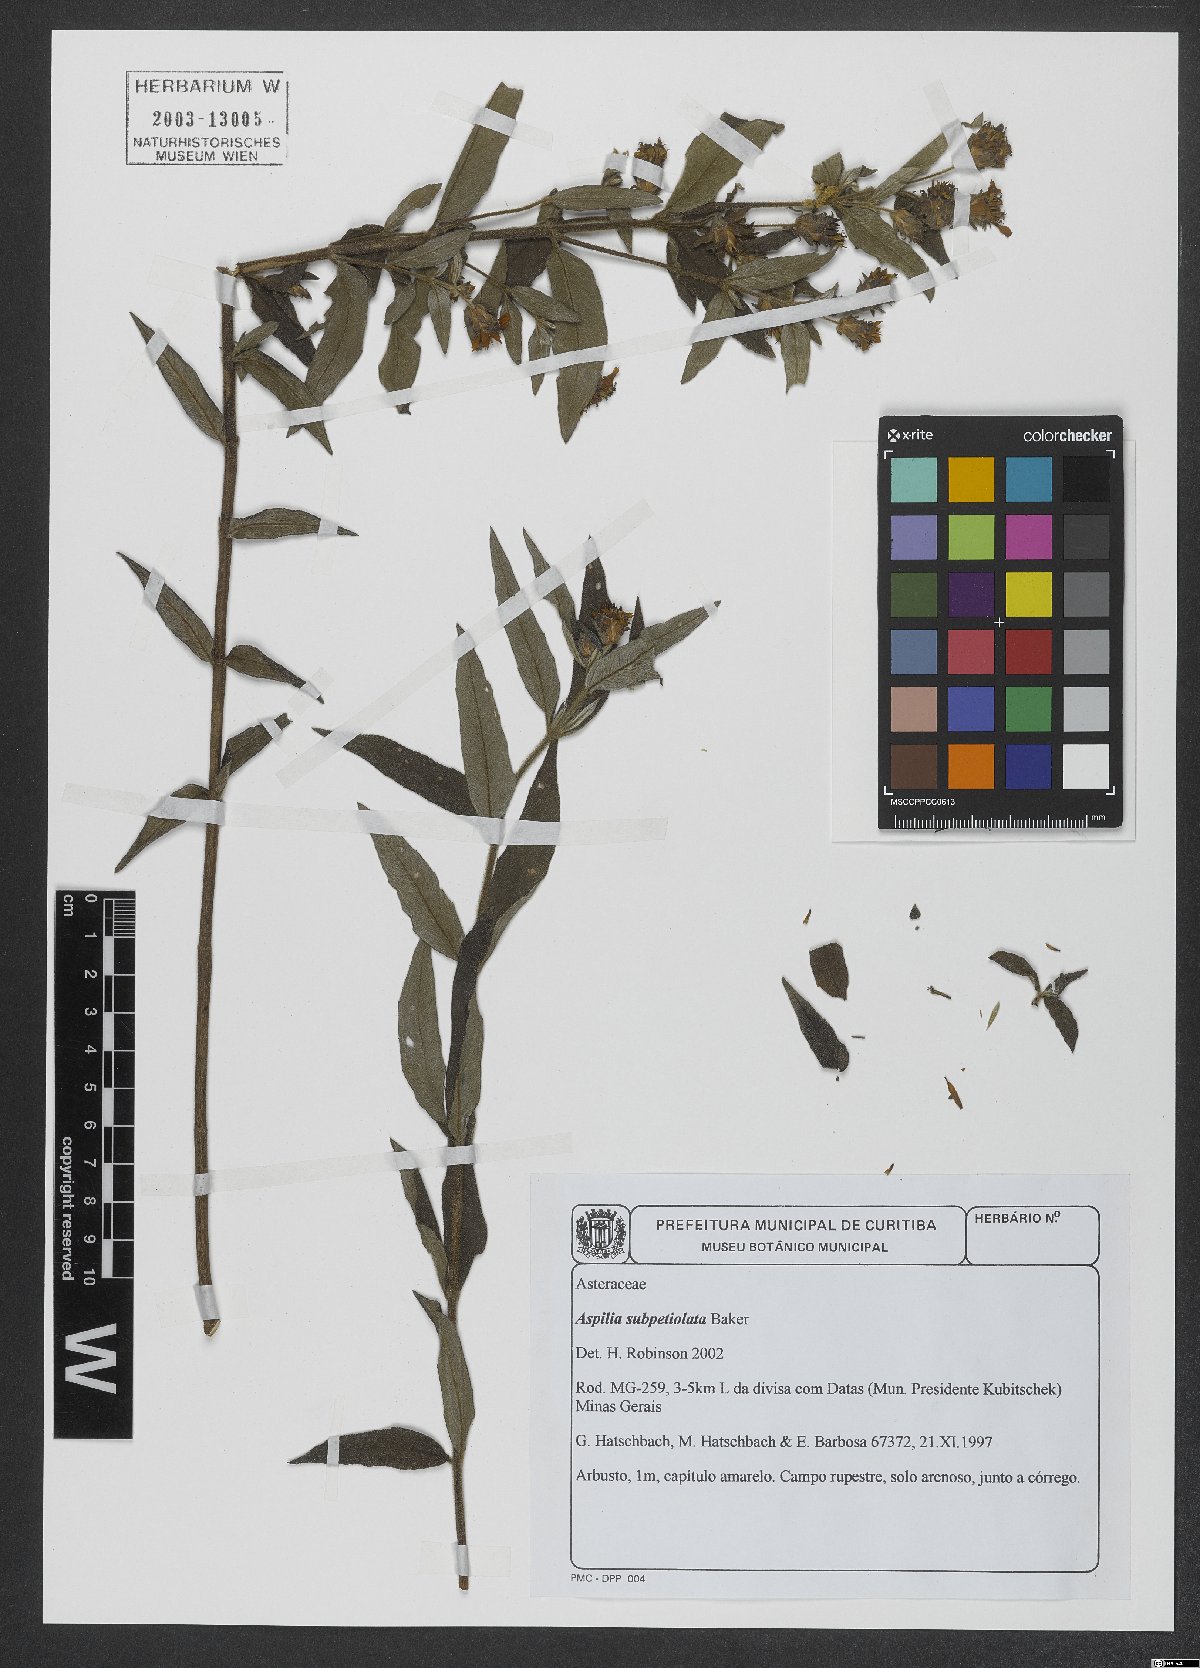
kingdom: Plantae
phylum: Tracheophyta
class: Magnoliopsida
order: Asterales
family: Asteraceae
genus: Wedelia
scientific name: Wedelia subpetiolata
